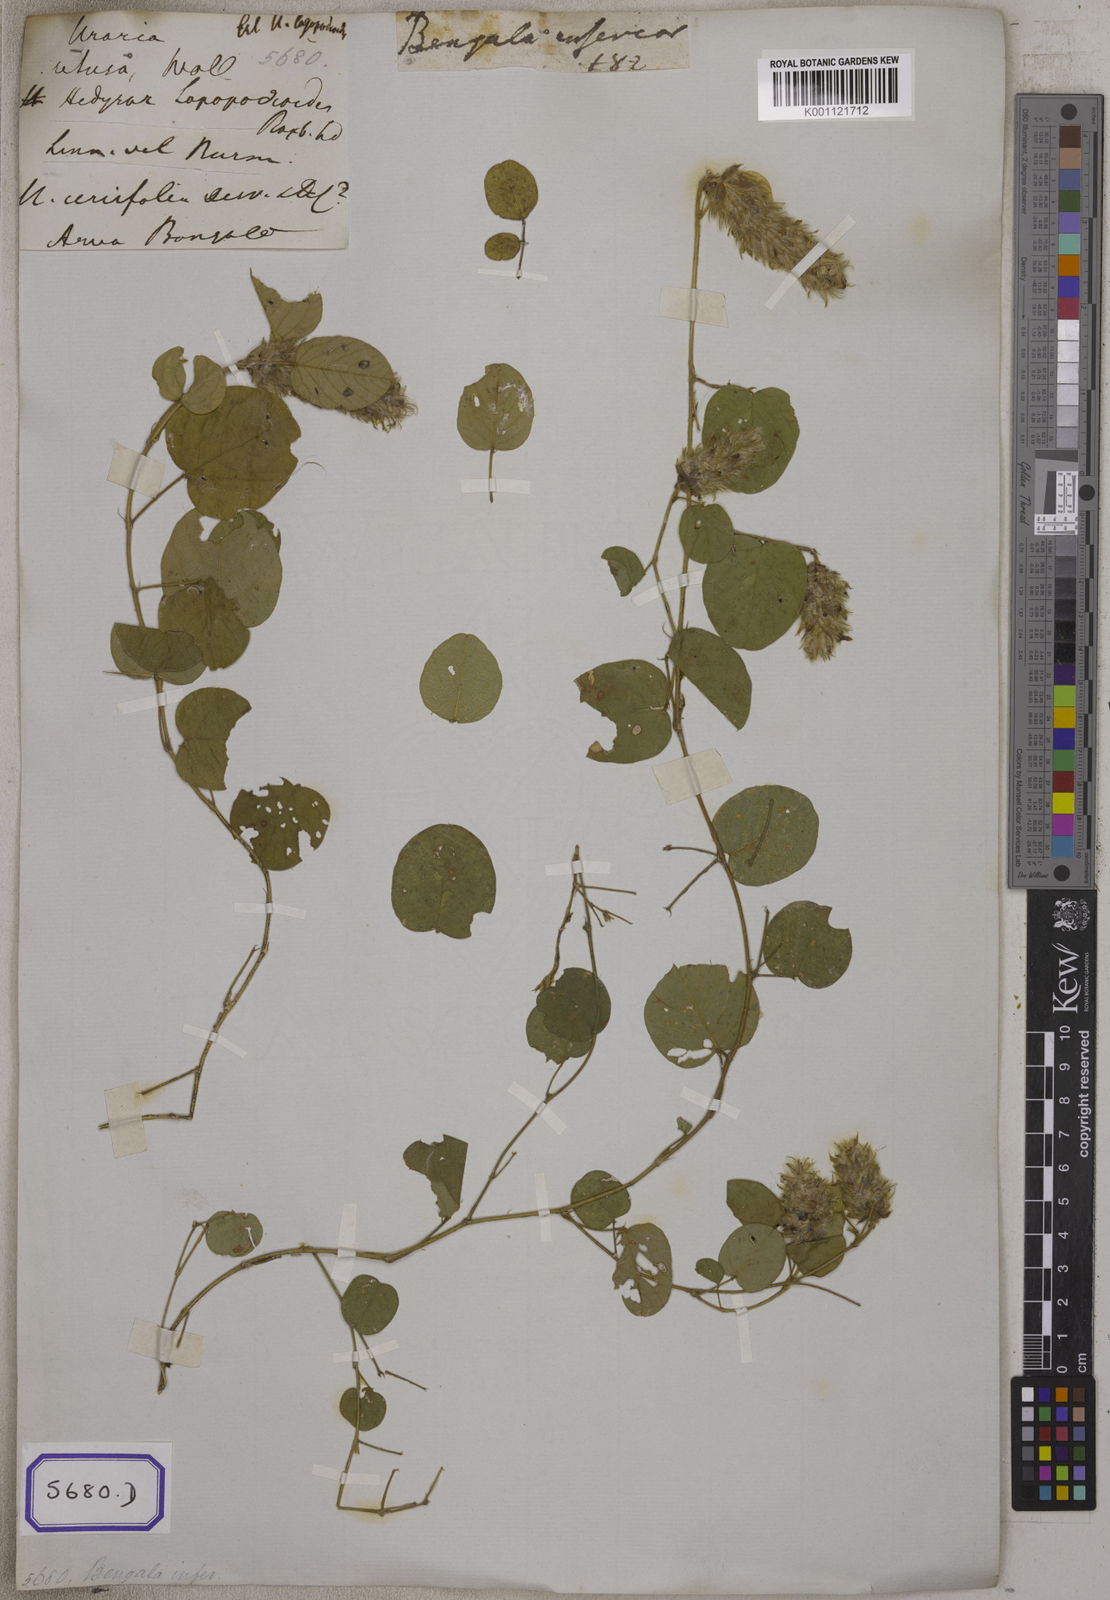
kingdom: Plantae
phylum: Tracheophyta
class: Magnoliopsida
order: Fabales
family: Fabaceae
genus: Uraria
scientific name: Uraria lagopodioides
